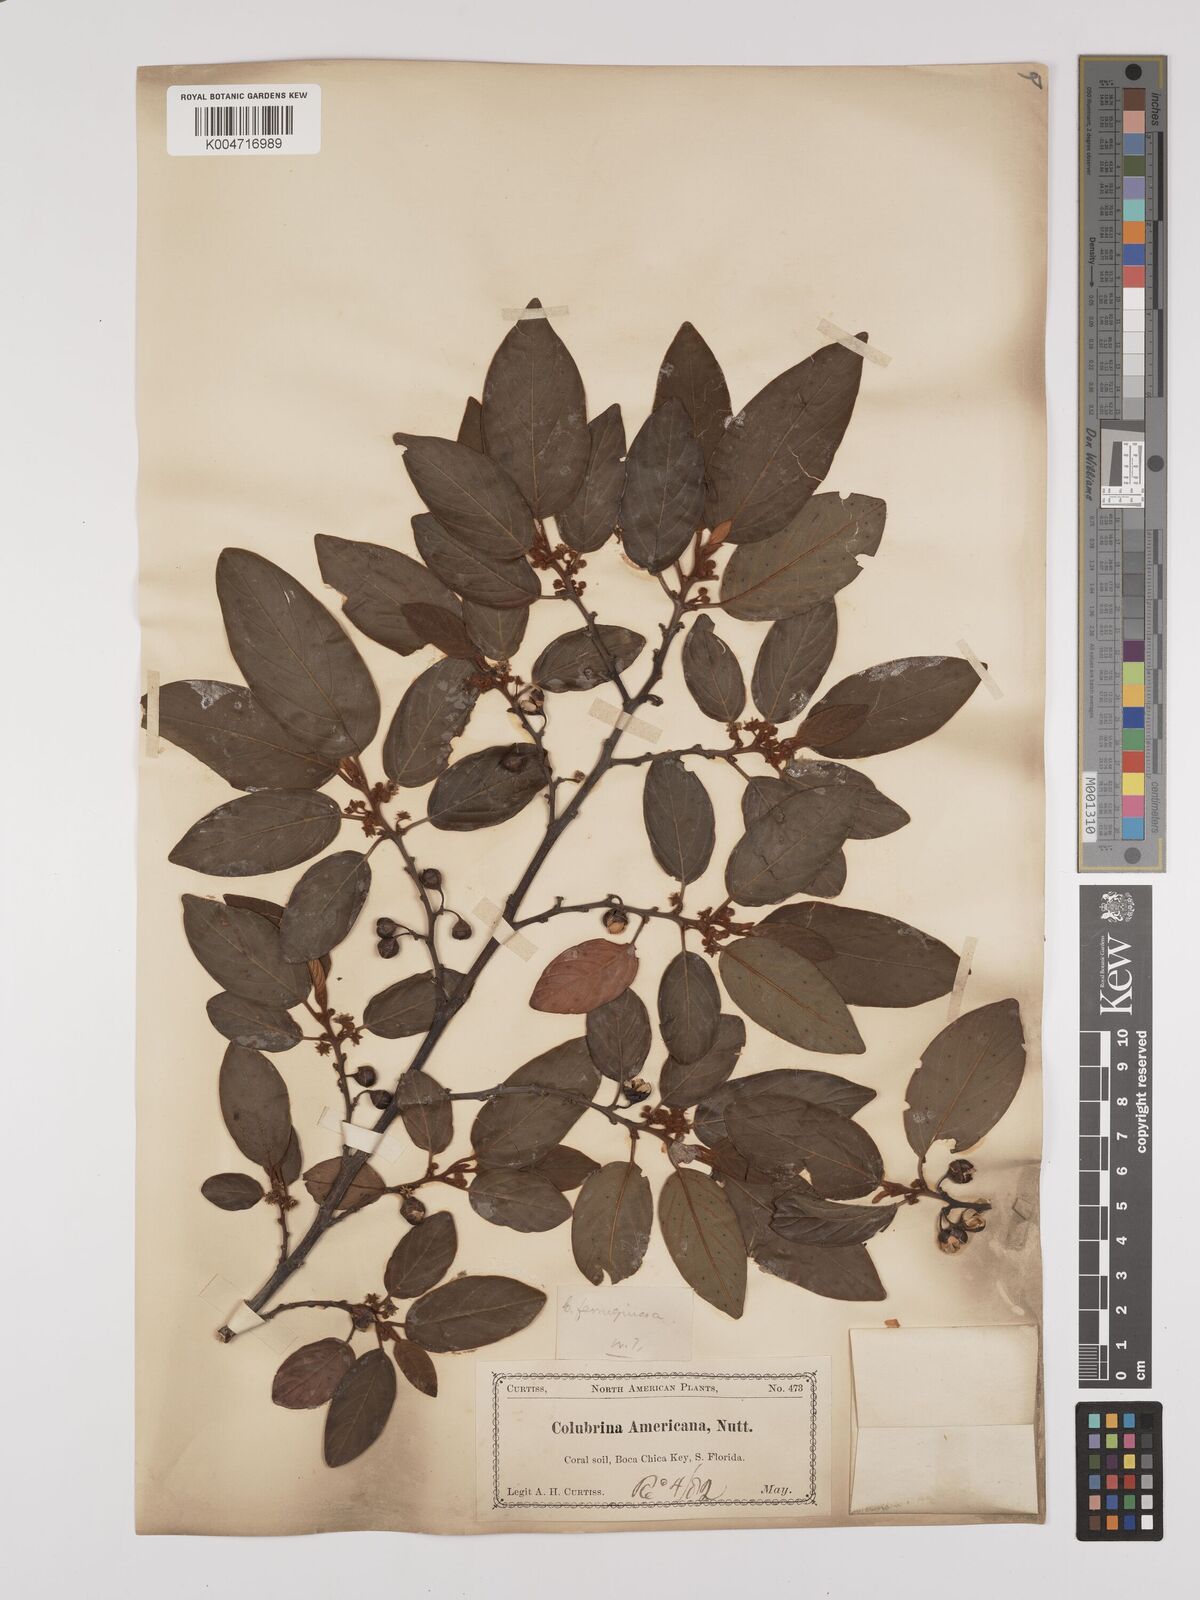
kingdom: Plantae
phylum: Tracheophyta
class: Magnoliopsida
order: Rosales
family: Rhamnaceae
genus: Colubrina
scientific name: Colubrina arborescens
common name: Wild coffee
